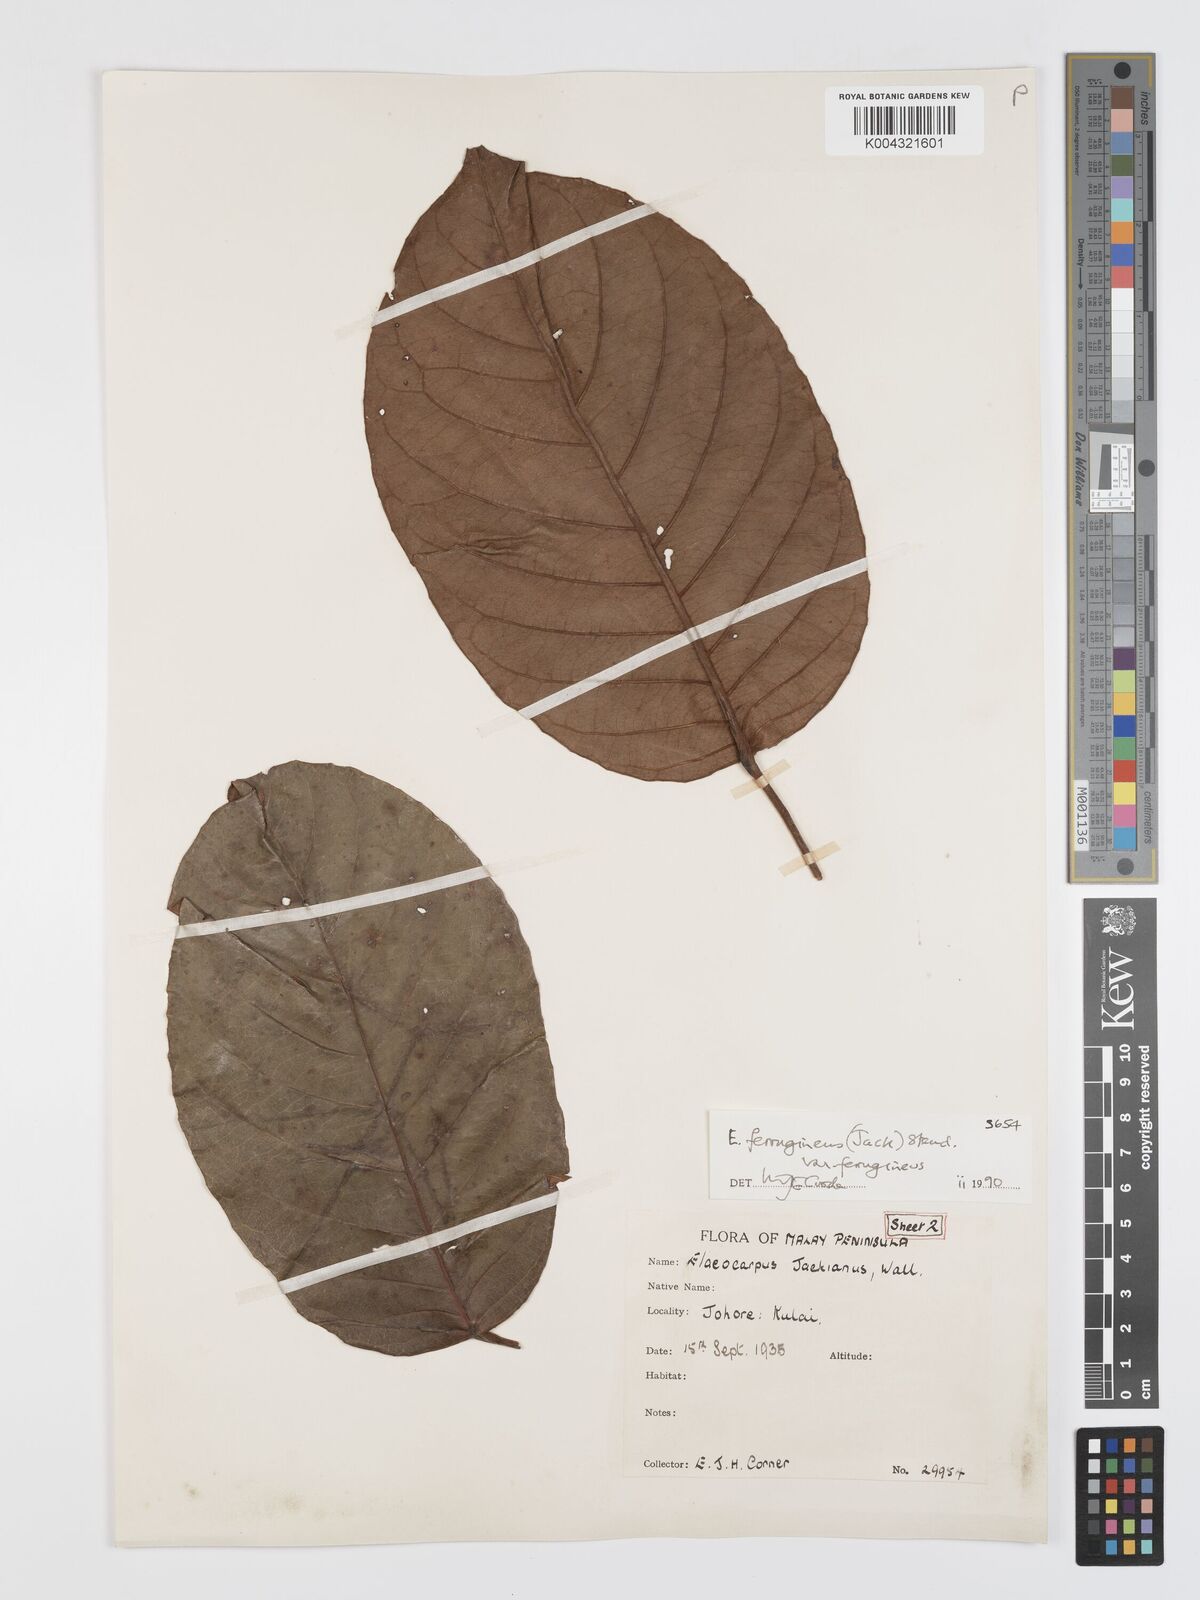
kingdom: Plantae
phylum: Tracheophyta
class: Magnoliopsida
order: Oxalidales
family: Elaeocarpaceae
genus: Elaeocarpus
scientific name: Elaeocarpus ferrugineus
